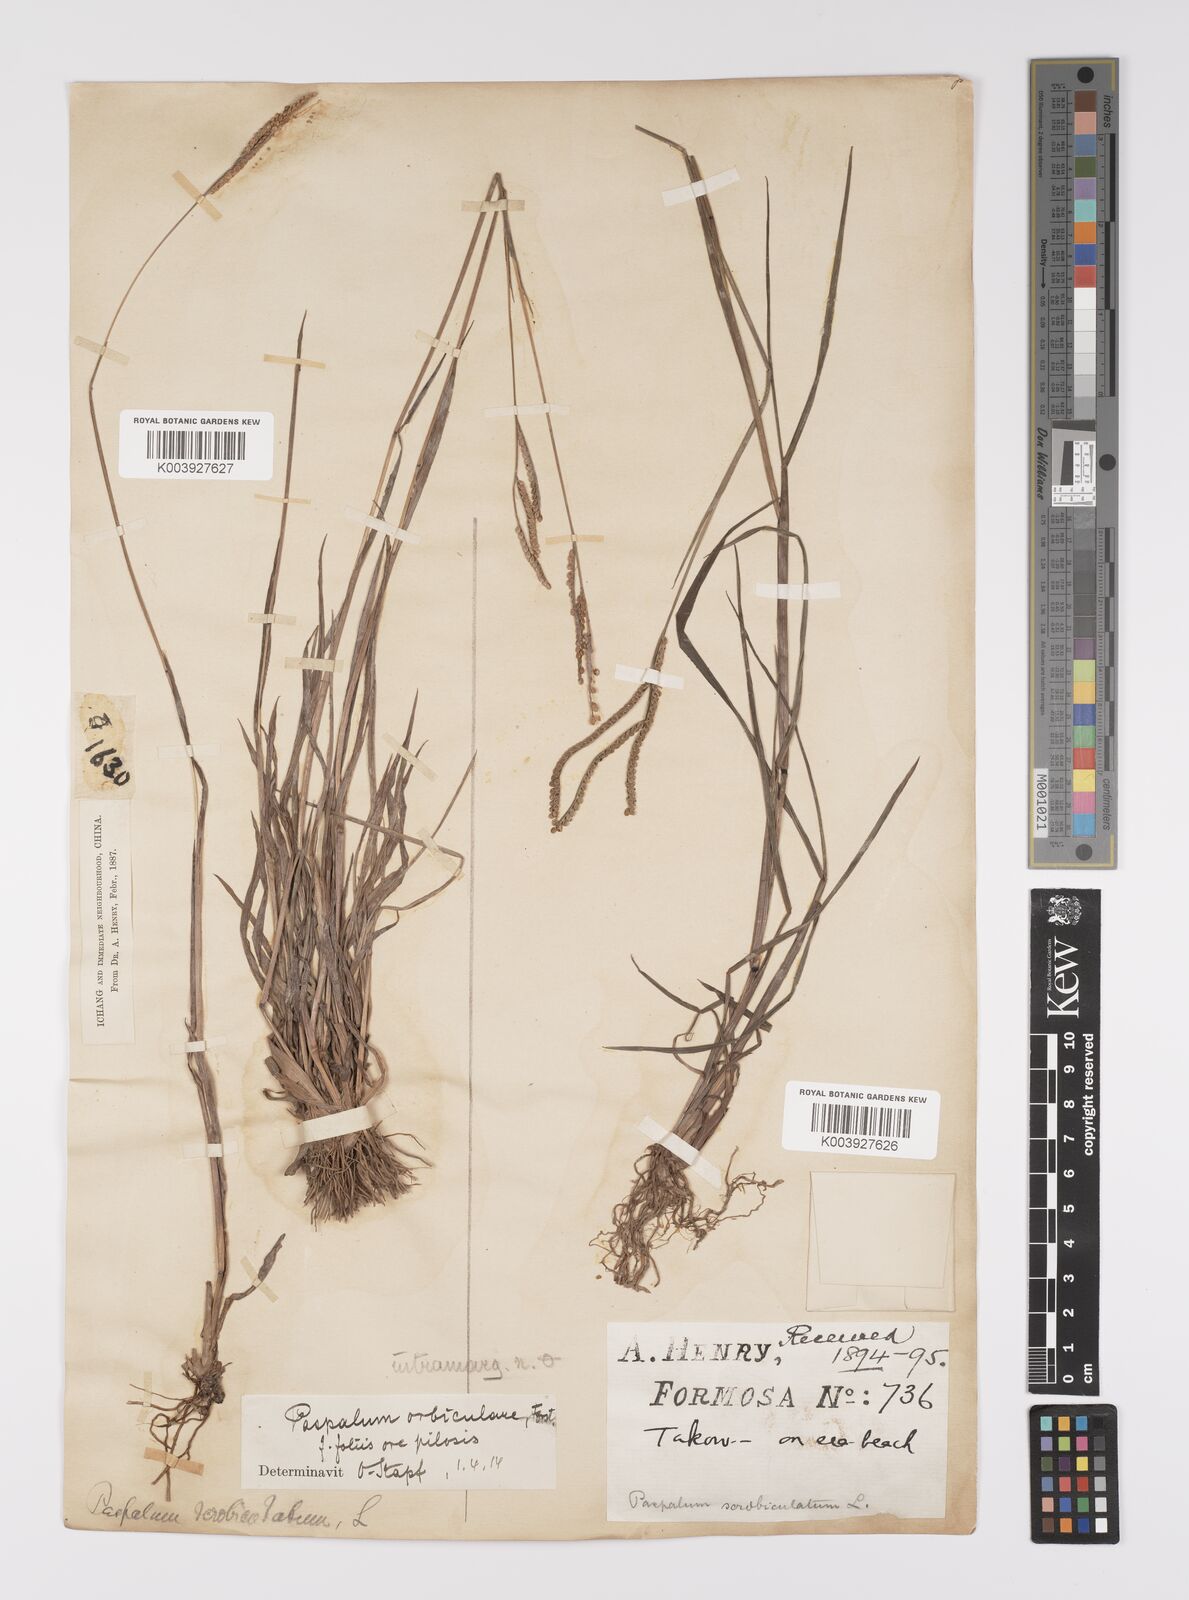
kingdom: Plantae
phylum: Tracheophyta
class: Liliopsida
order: Poales
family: Poaceae
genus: Paspalum
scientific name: Paspalum orbiculare
